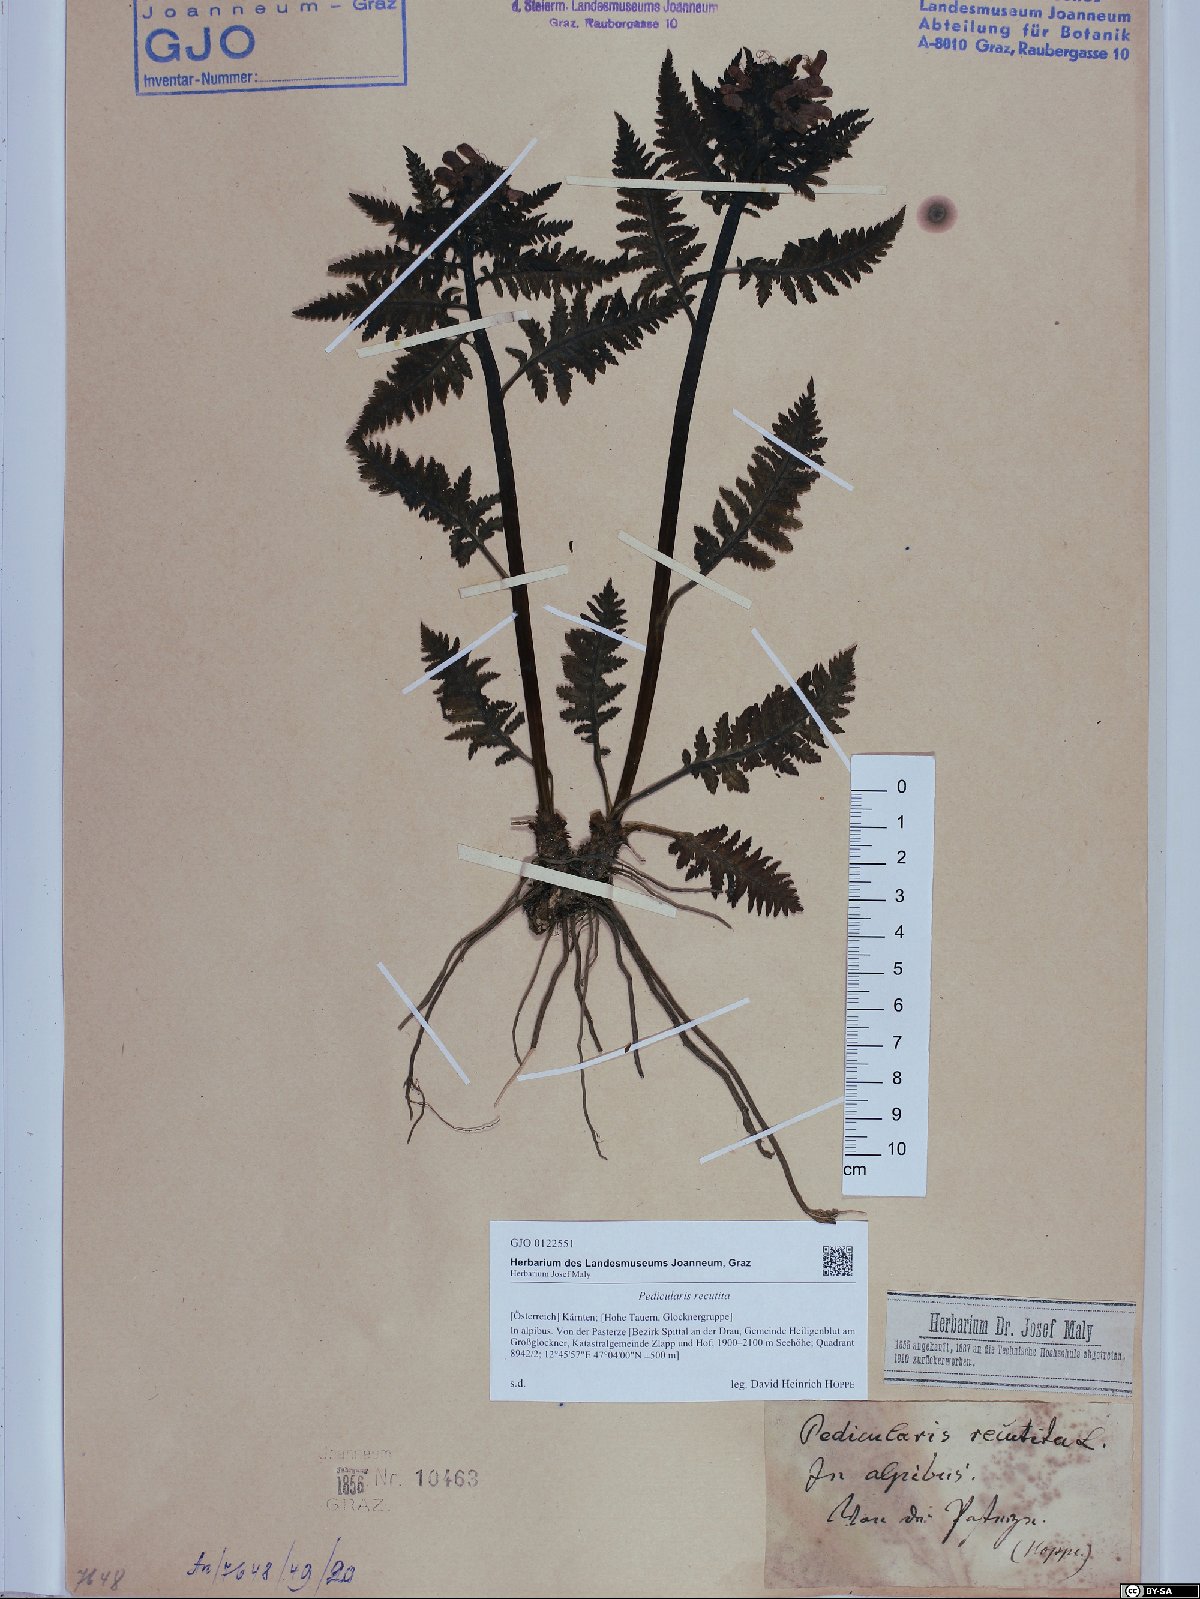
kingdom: Plantae
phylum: Tracheophyta
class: Magnoliopsida
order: Lamiales
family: Orobanchaceae
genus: Pedicularis
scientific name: Pedicularis recutita
